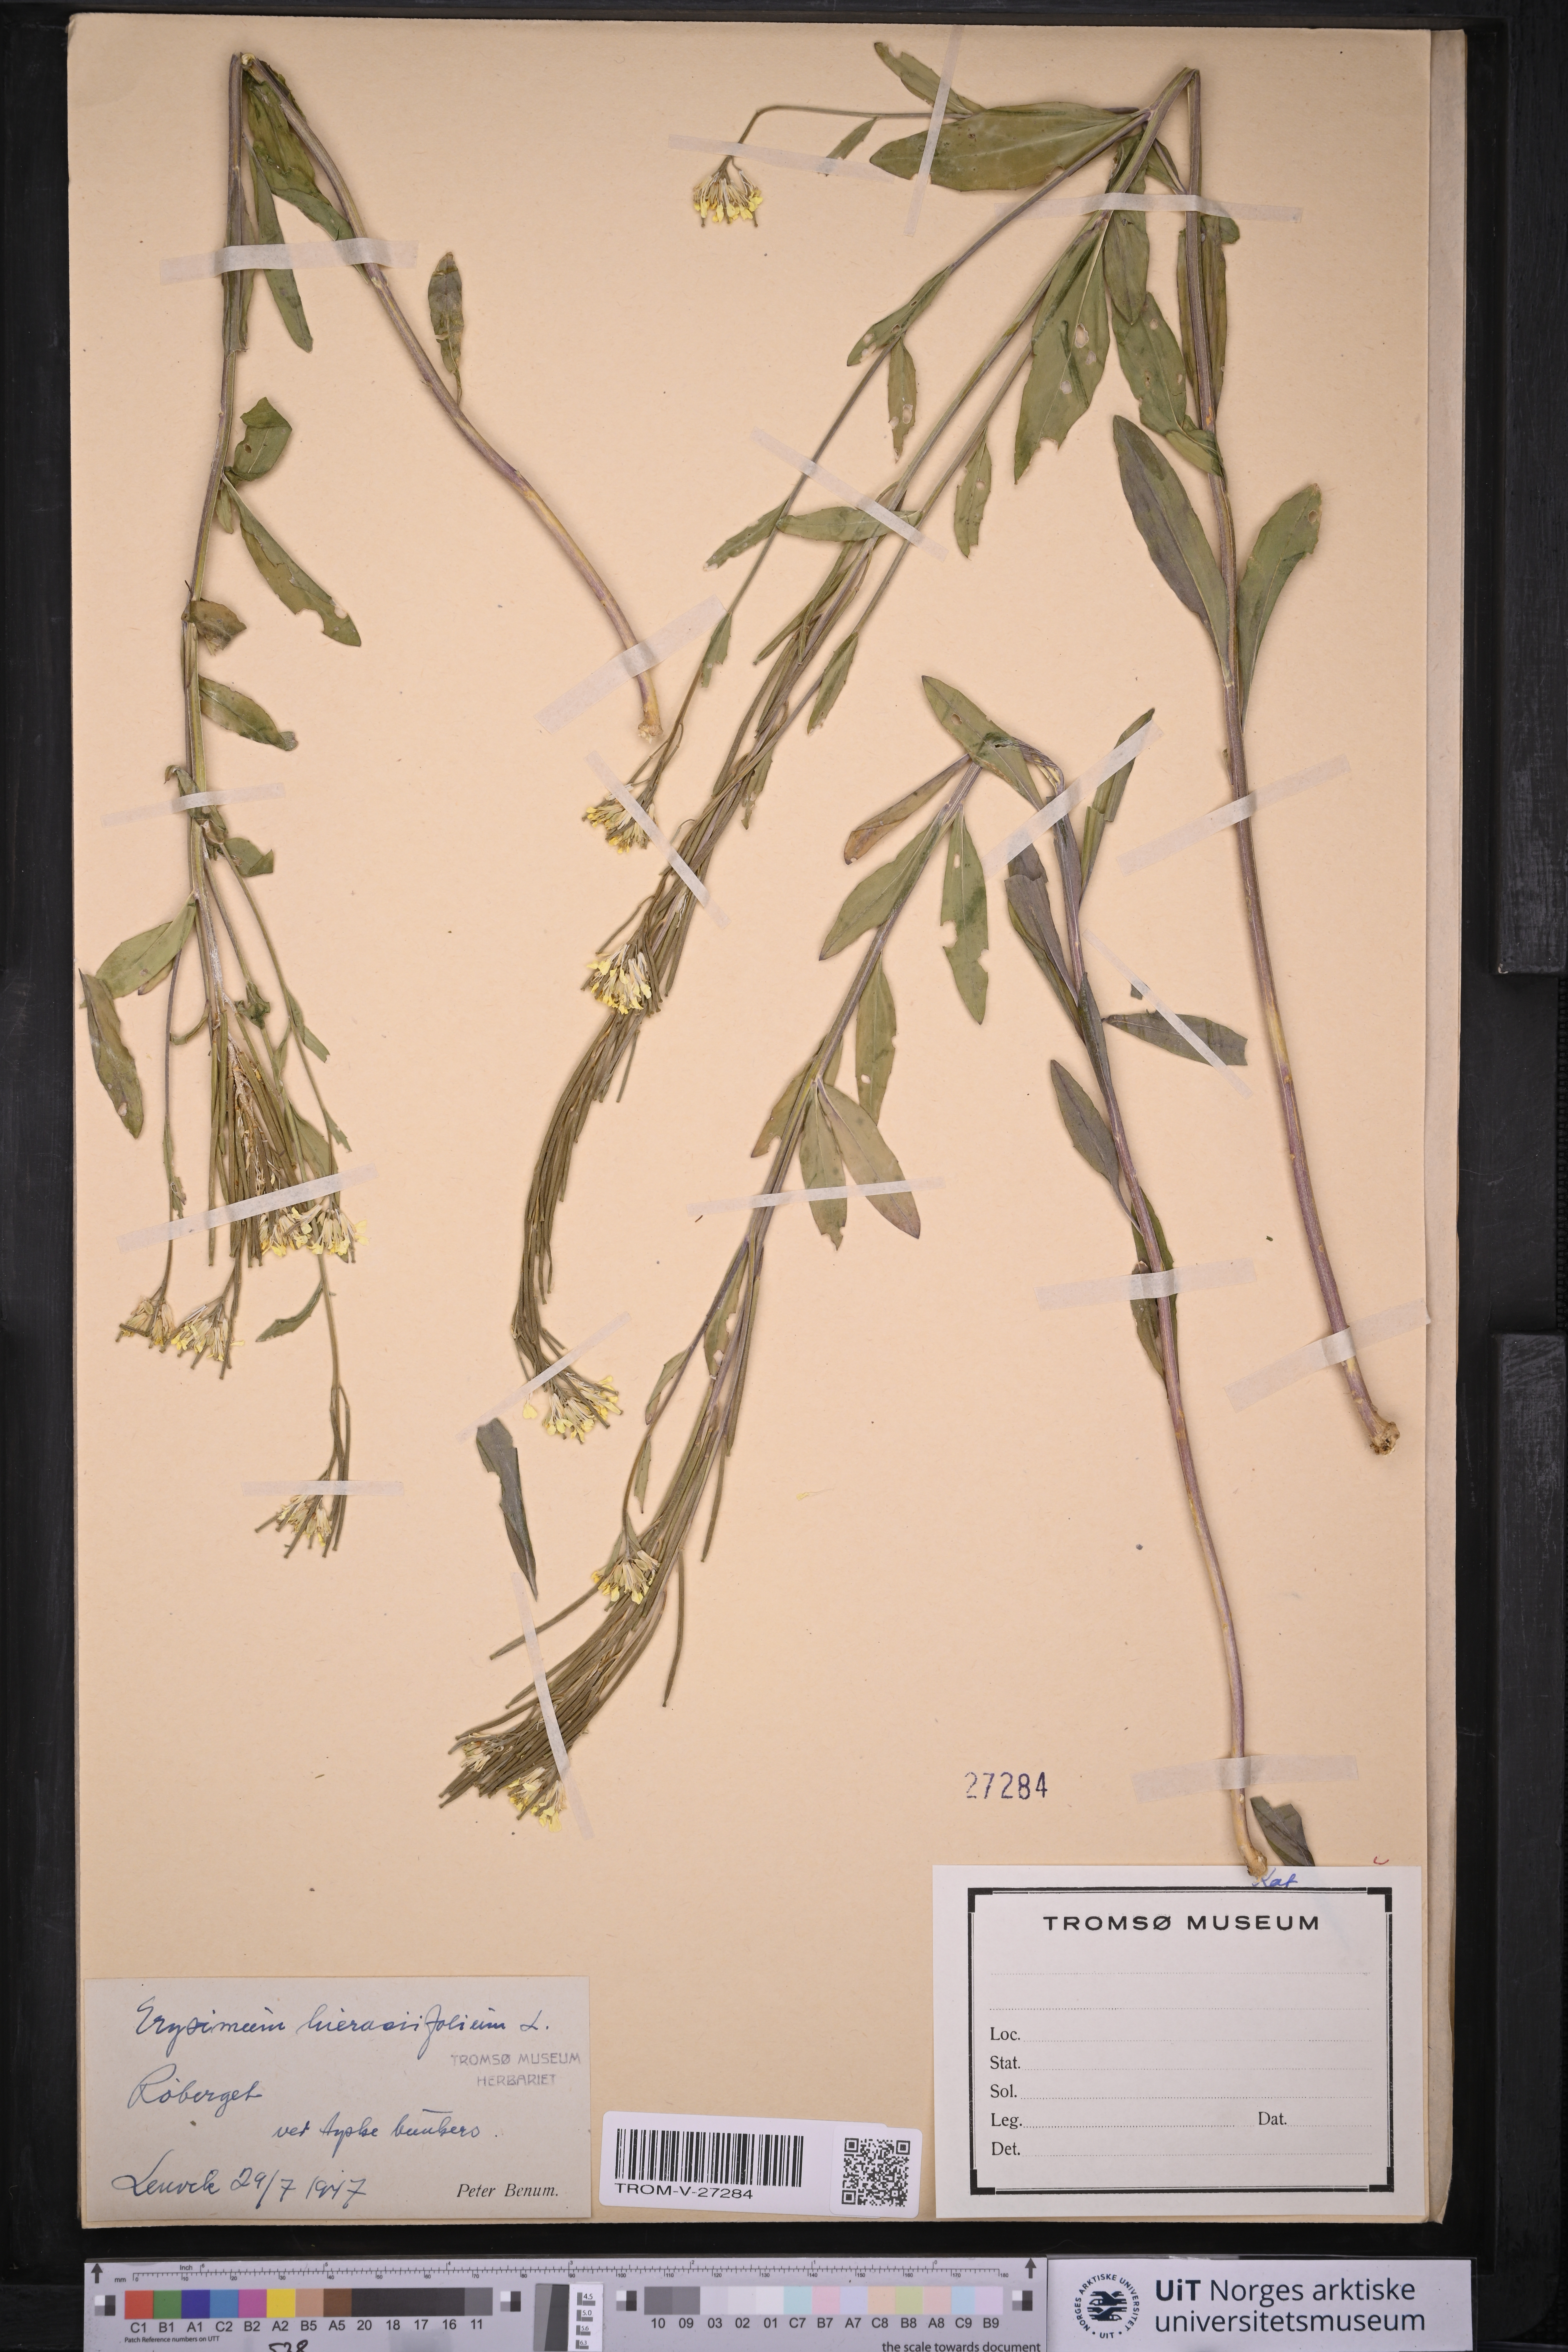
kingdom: Plantae
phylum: Tracheophyta
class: Magnoliopsida
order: Brassicales
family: Brassicaceae
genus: Erysimum
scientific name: Erysimum virgatum
